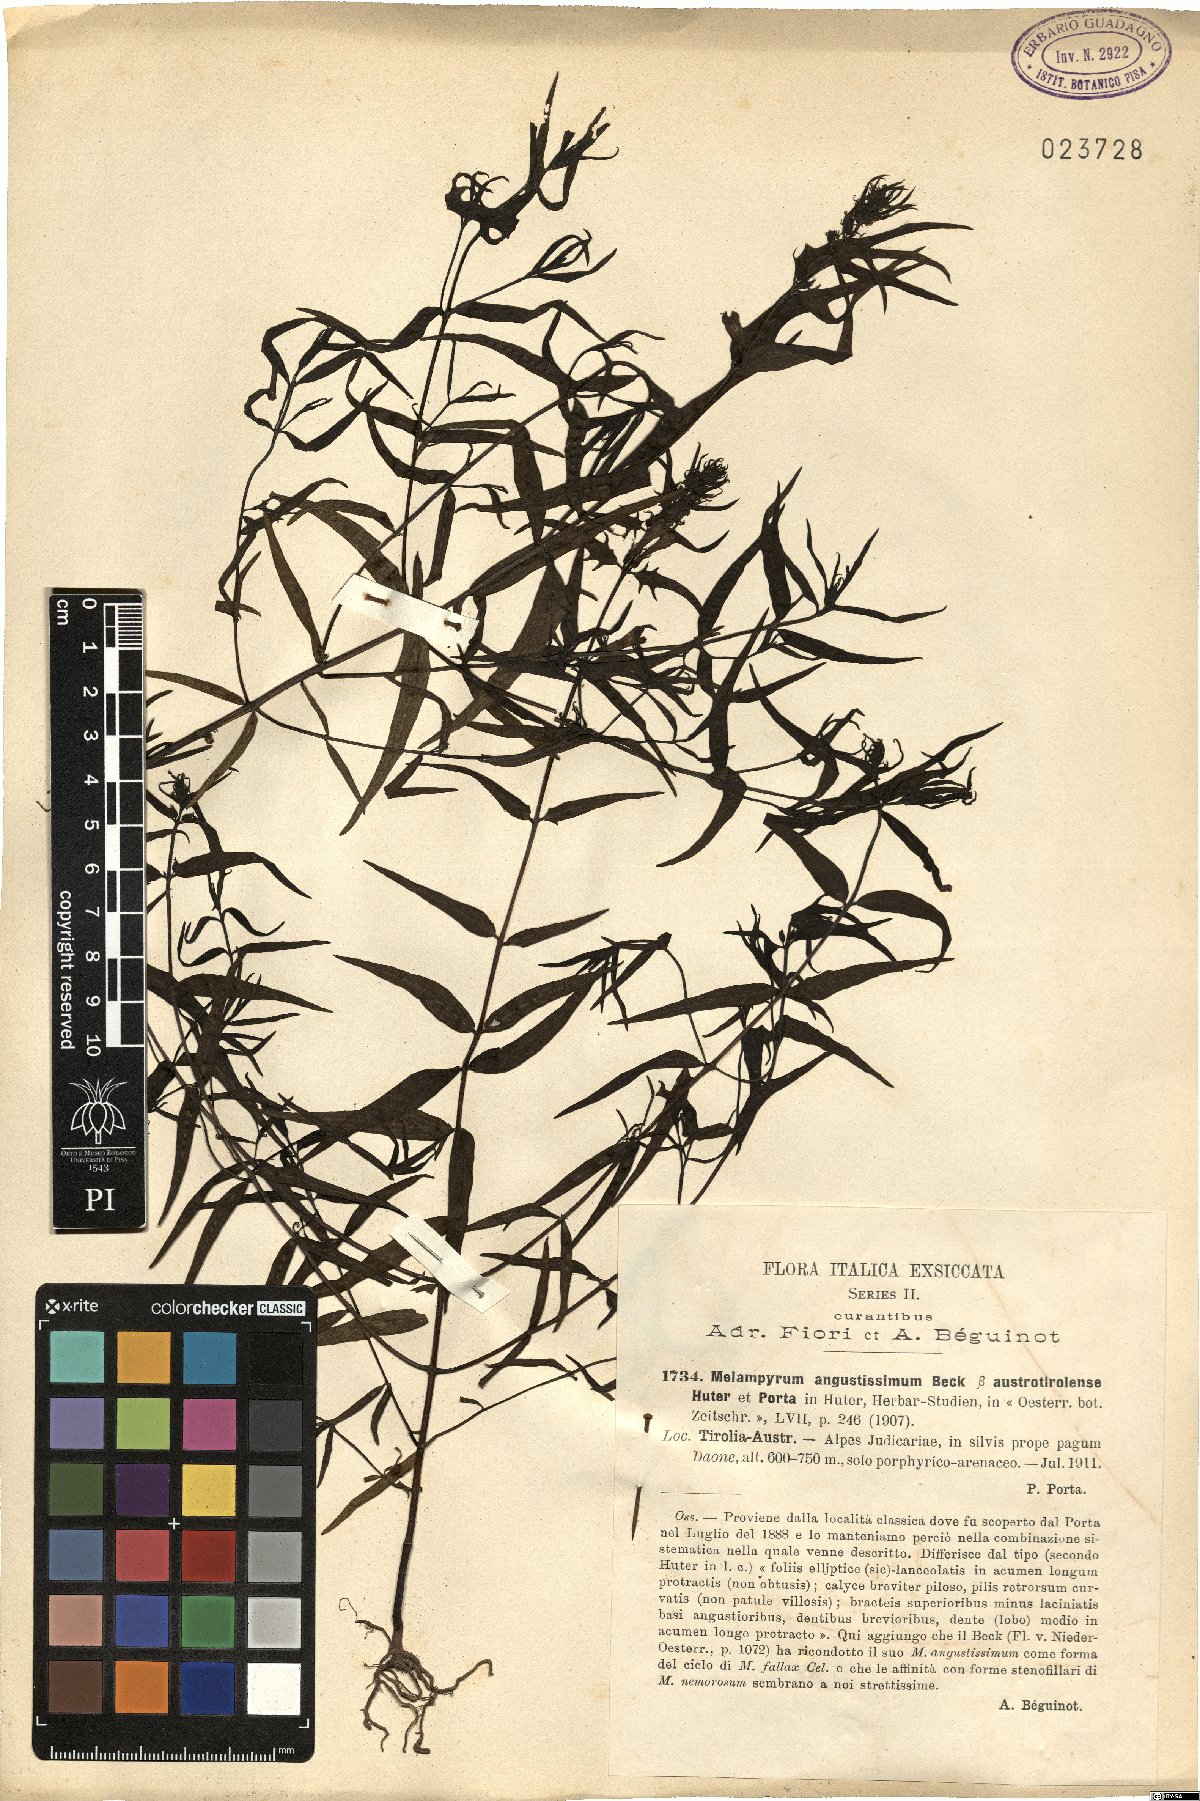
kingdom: Plantae
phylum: Tracheophyta
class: Magnoliopsida
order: Lamiales
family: Orobanchaceae
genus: Melampyrum
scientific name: Melampyrum subalpinum
